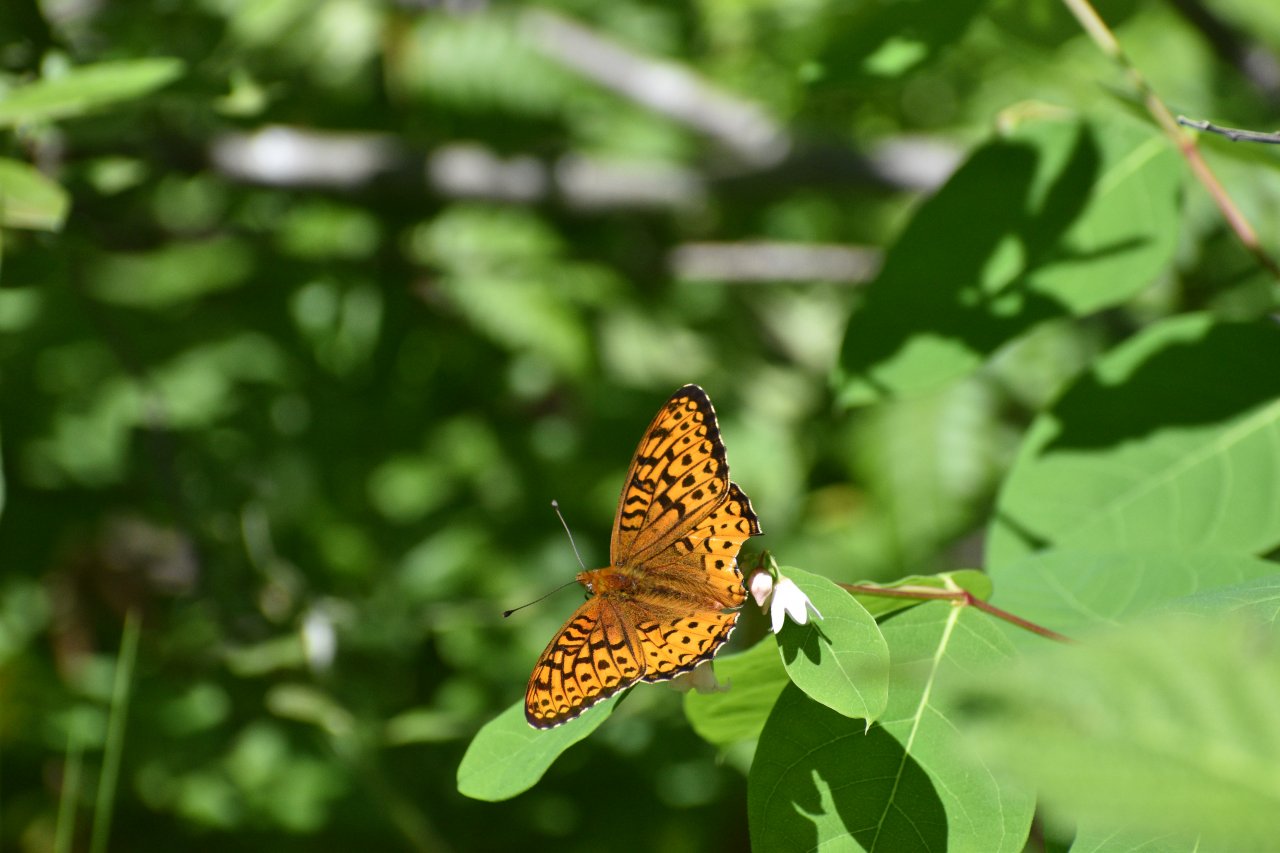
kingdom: Animalia
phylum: Arthropoda
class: Insecta
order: Lepidoptera
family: Nymphalidae
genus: Speyeria
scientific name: Speyeria atlantis
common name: Atlantis Fritillary
